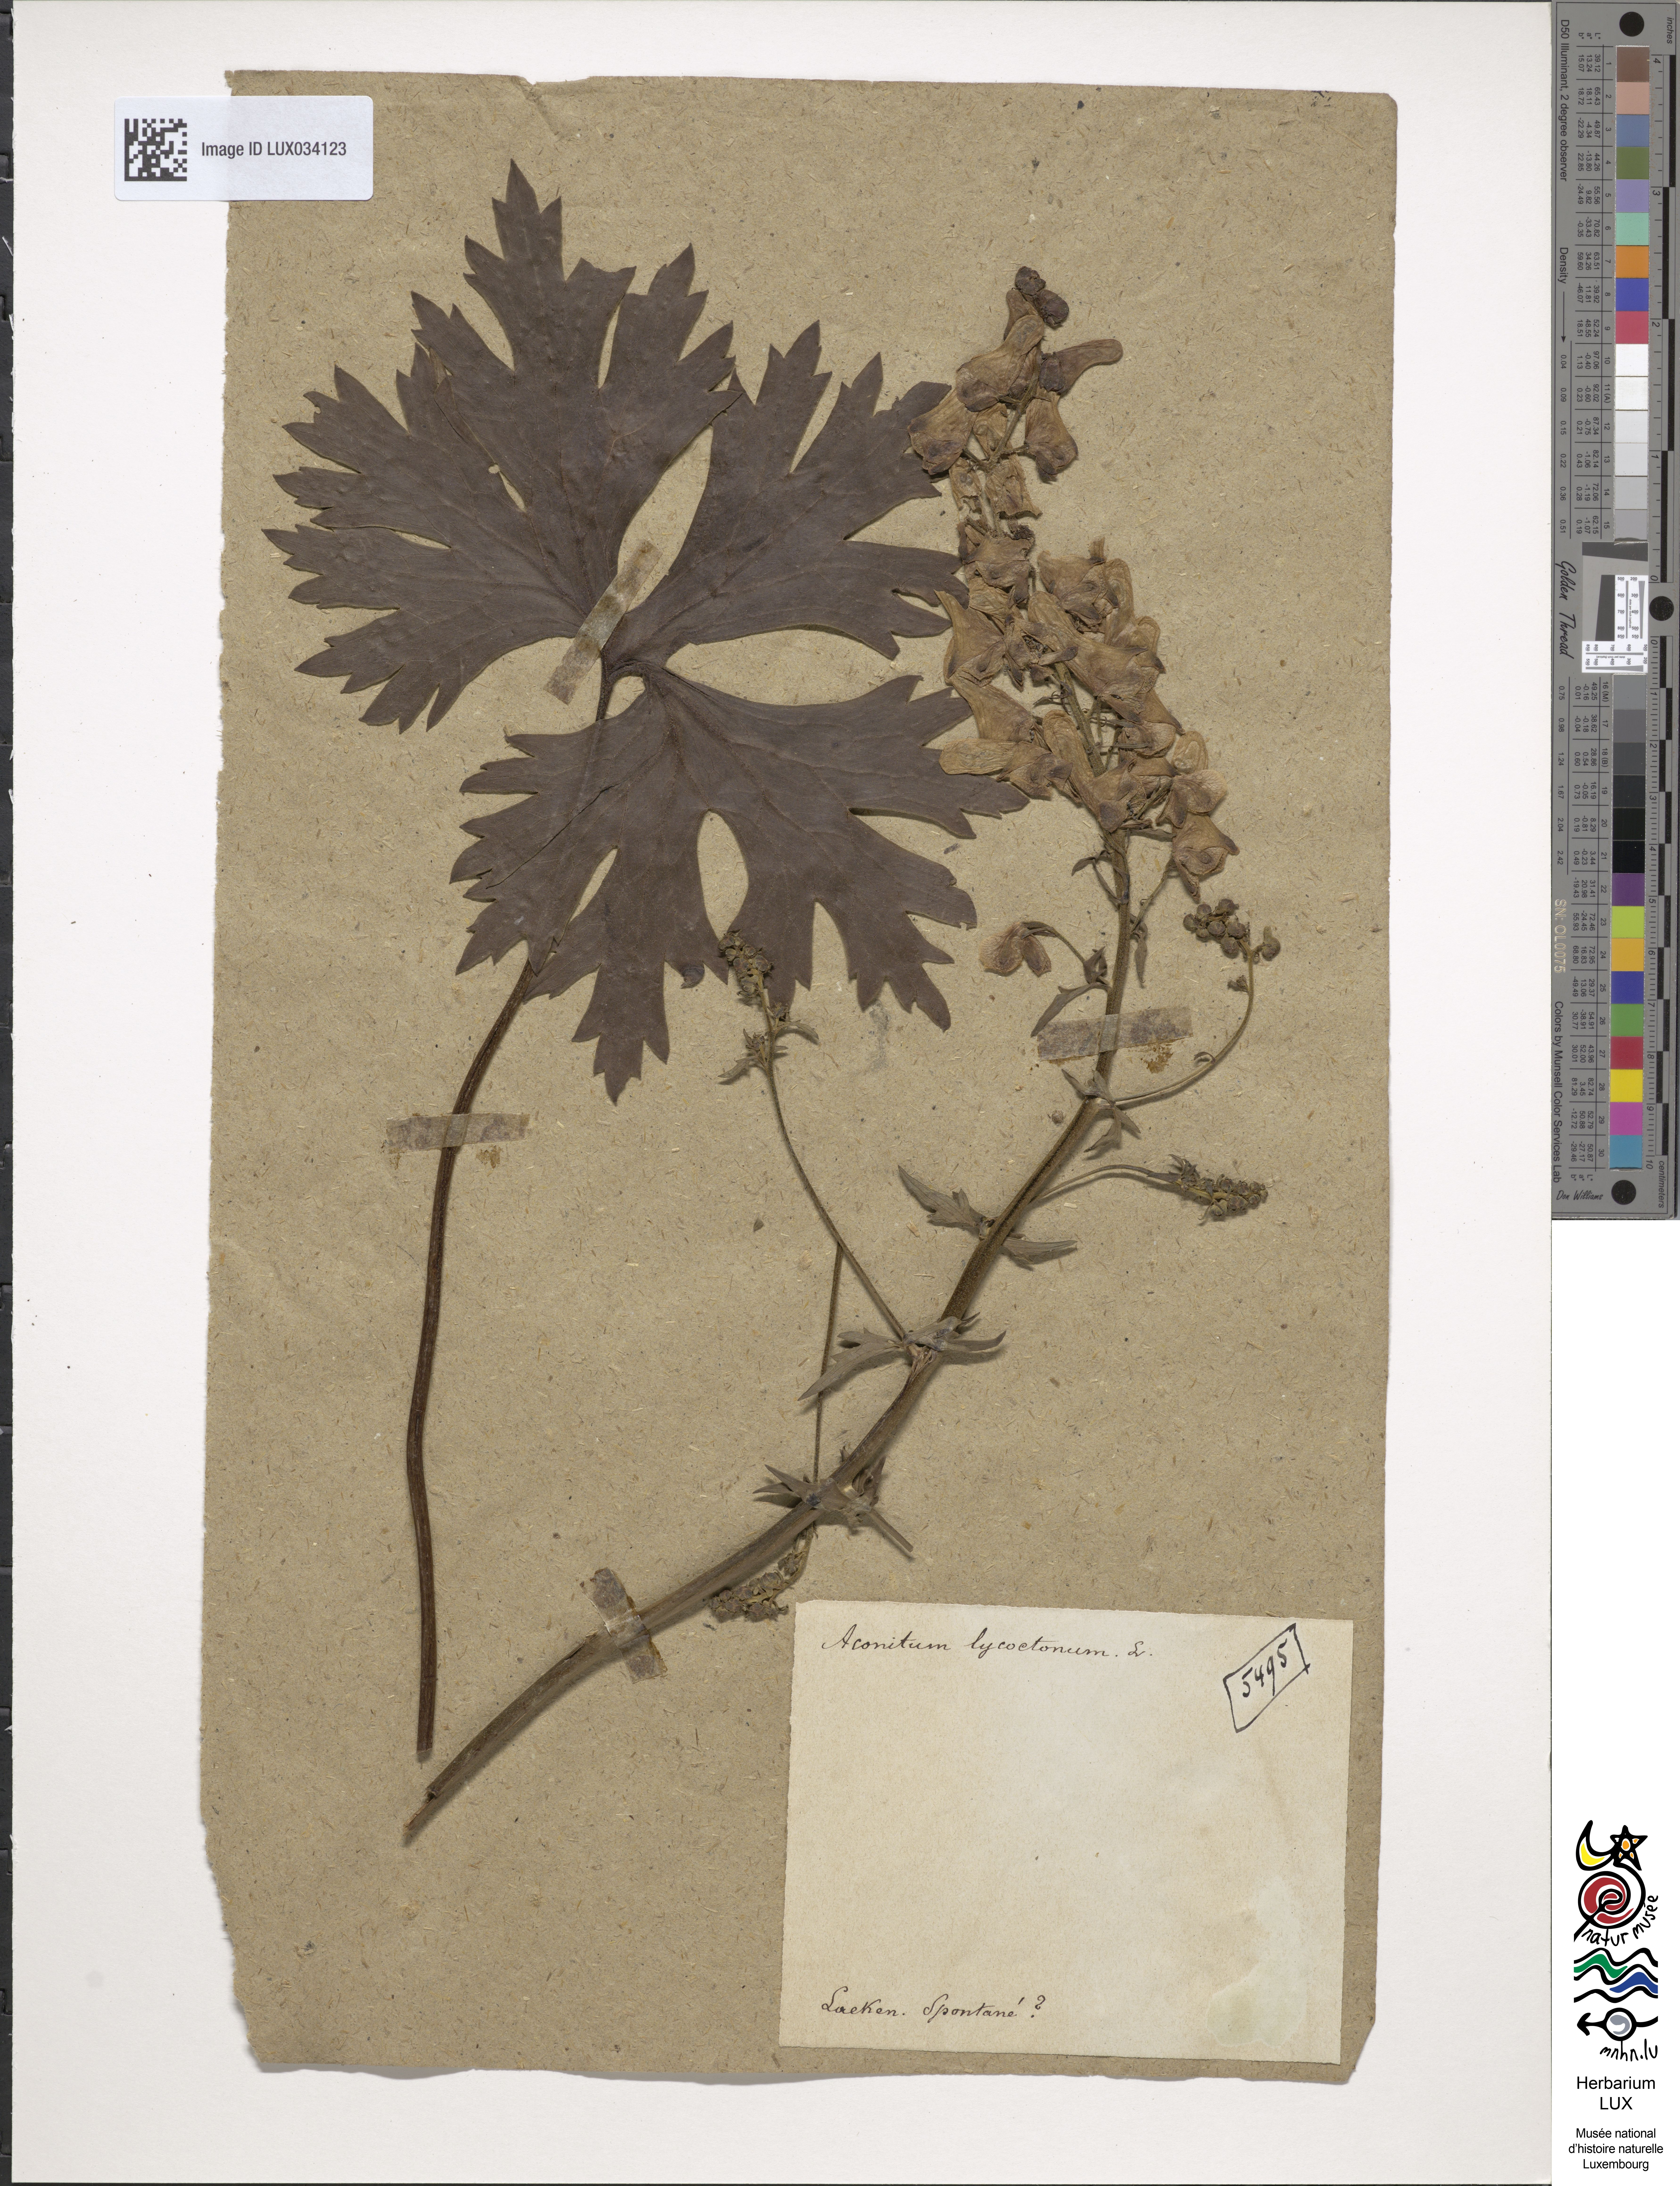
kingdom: Plantae
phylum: Tracheophyta
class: Magnoliopsida
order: Ranunculales
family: Ranunculaceae
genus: Aconitum
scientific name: Aconitum lycoctonum
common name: Wolf's-bane
